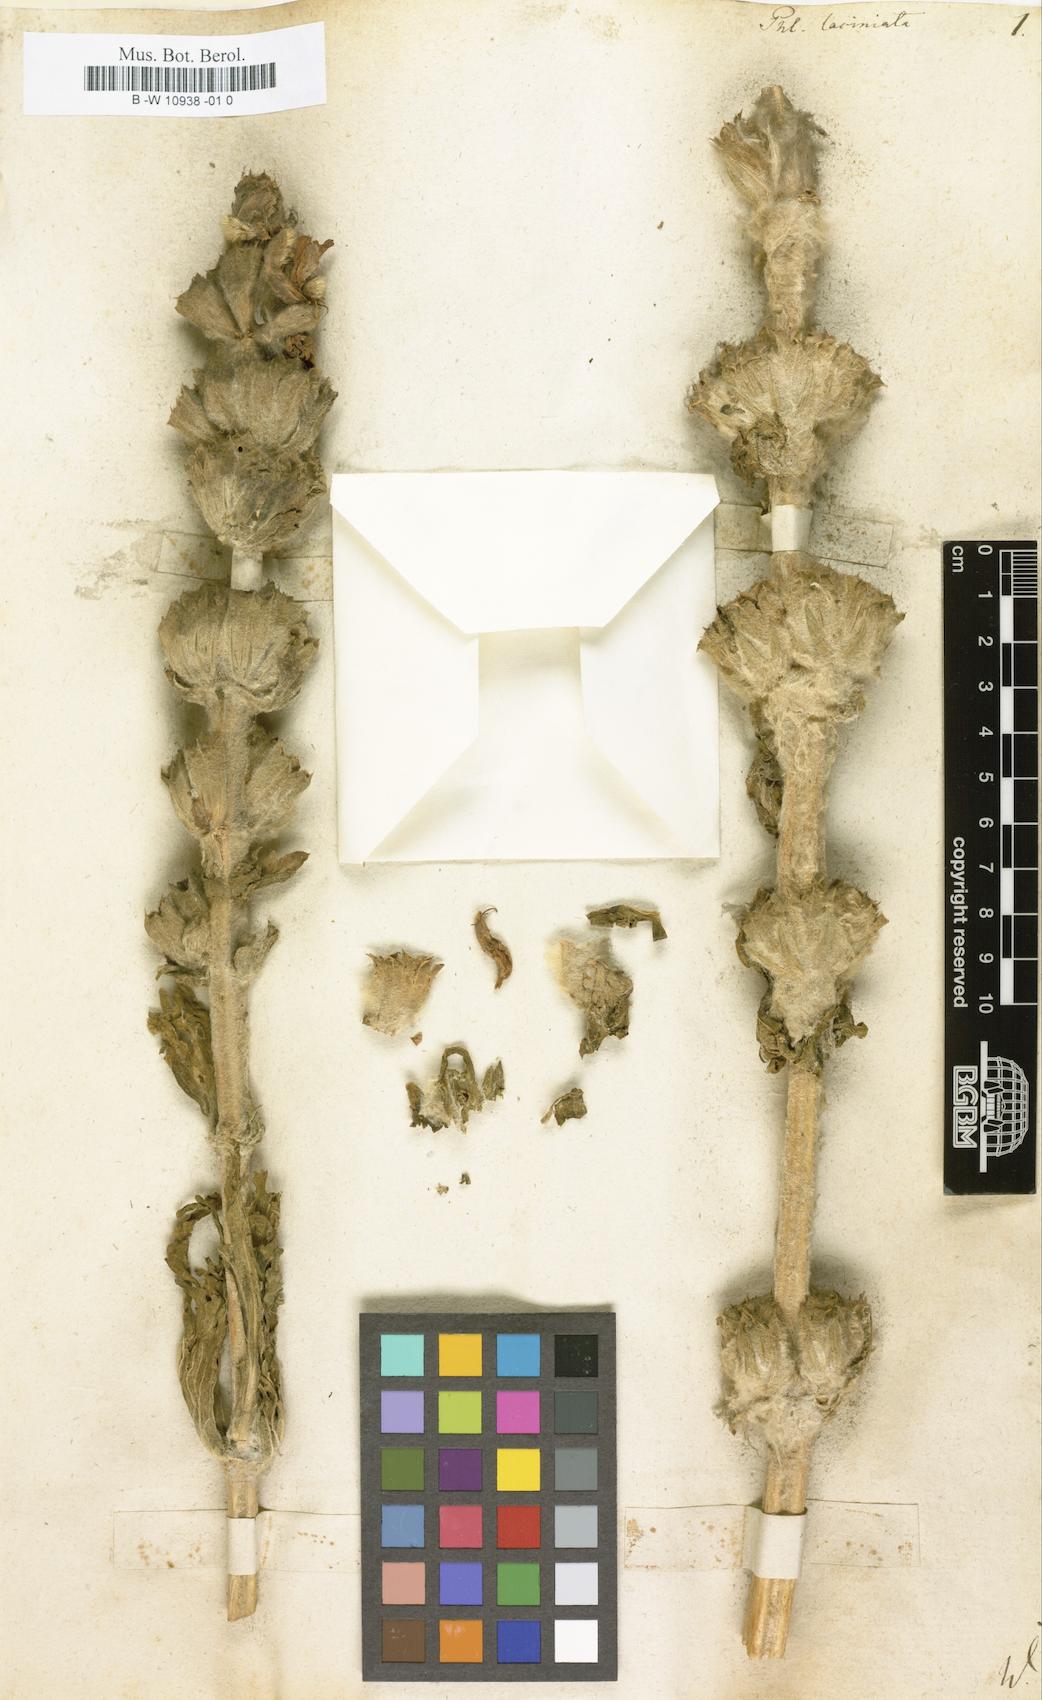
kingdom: Plantae
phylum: Tracheophyta
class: Magnoliopsida
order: Lamiales
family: Lamiaceae
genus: Phlomis
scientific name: Phlomis laciniata
